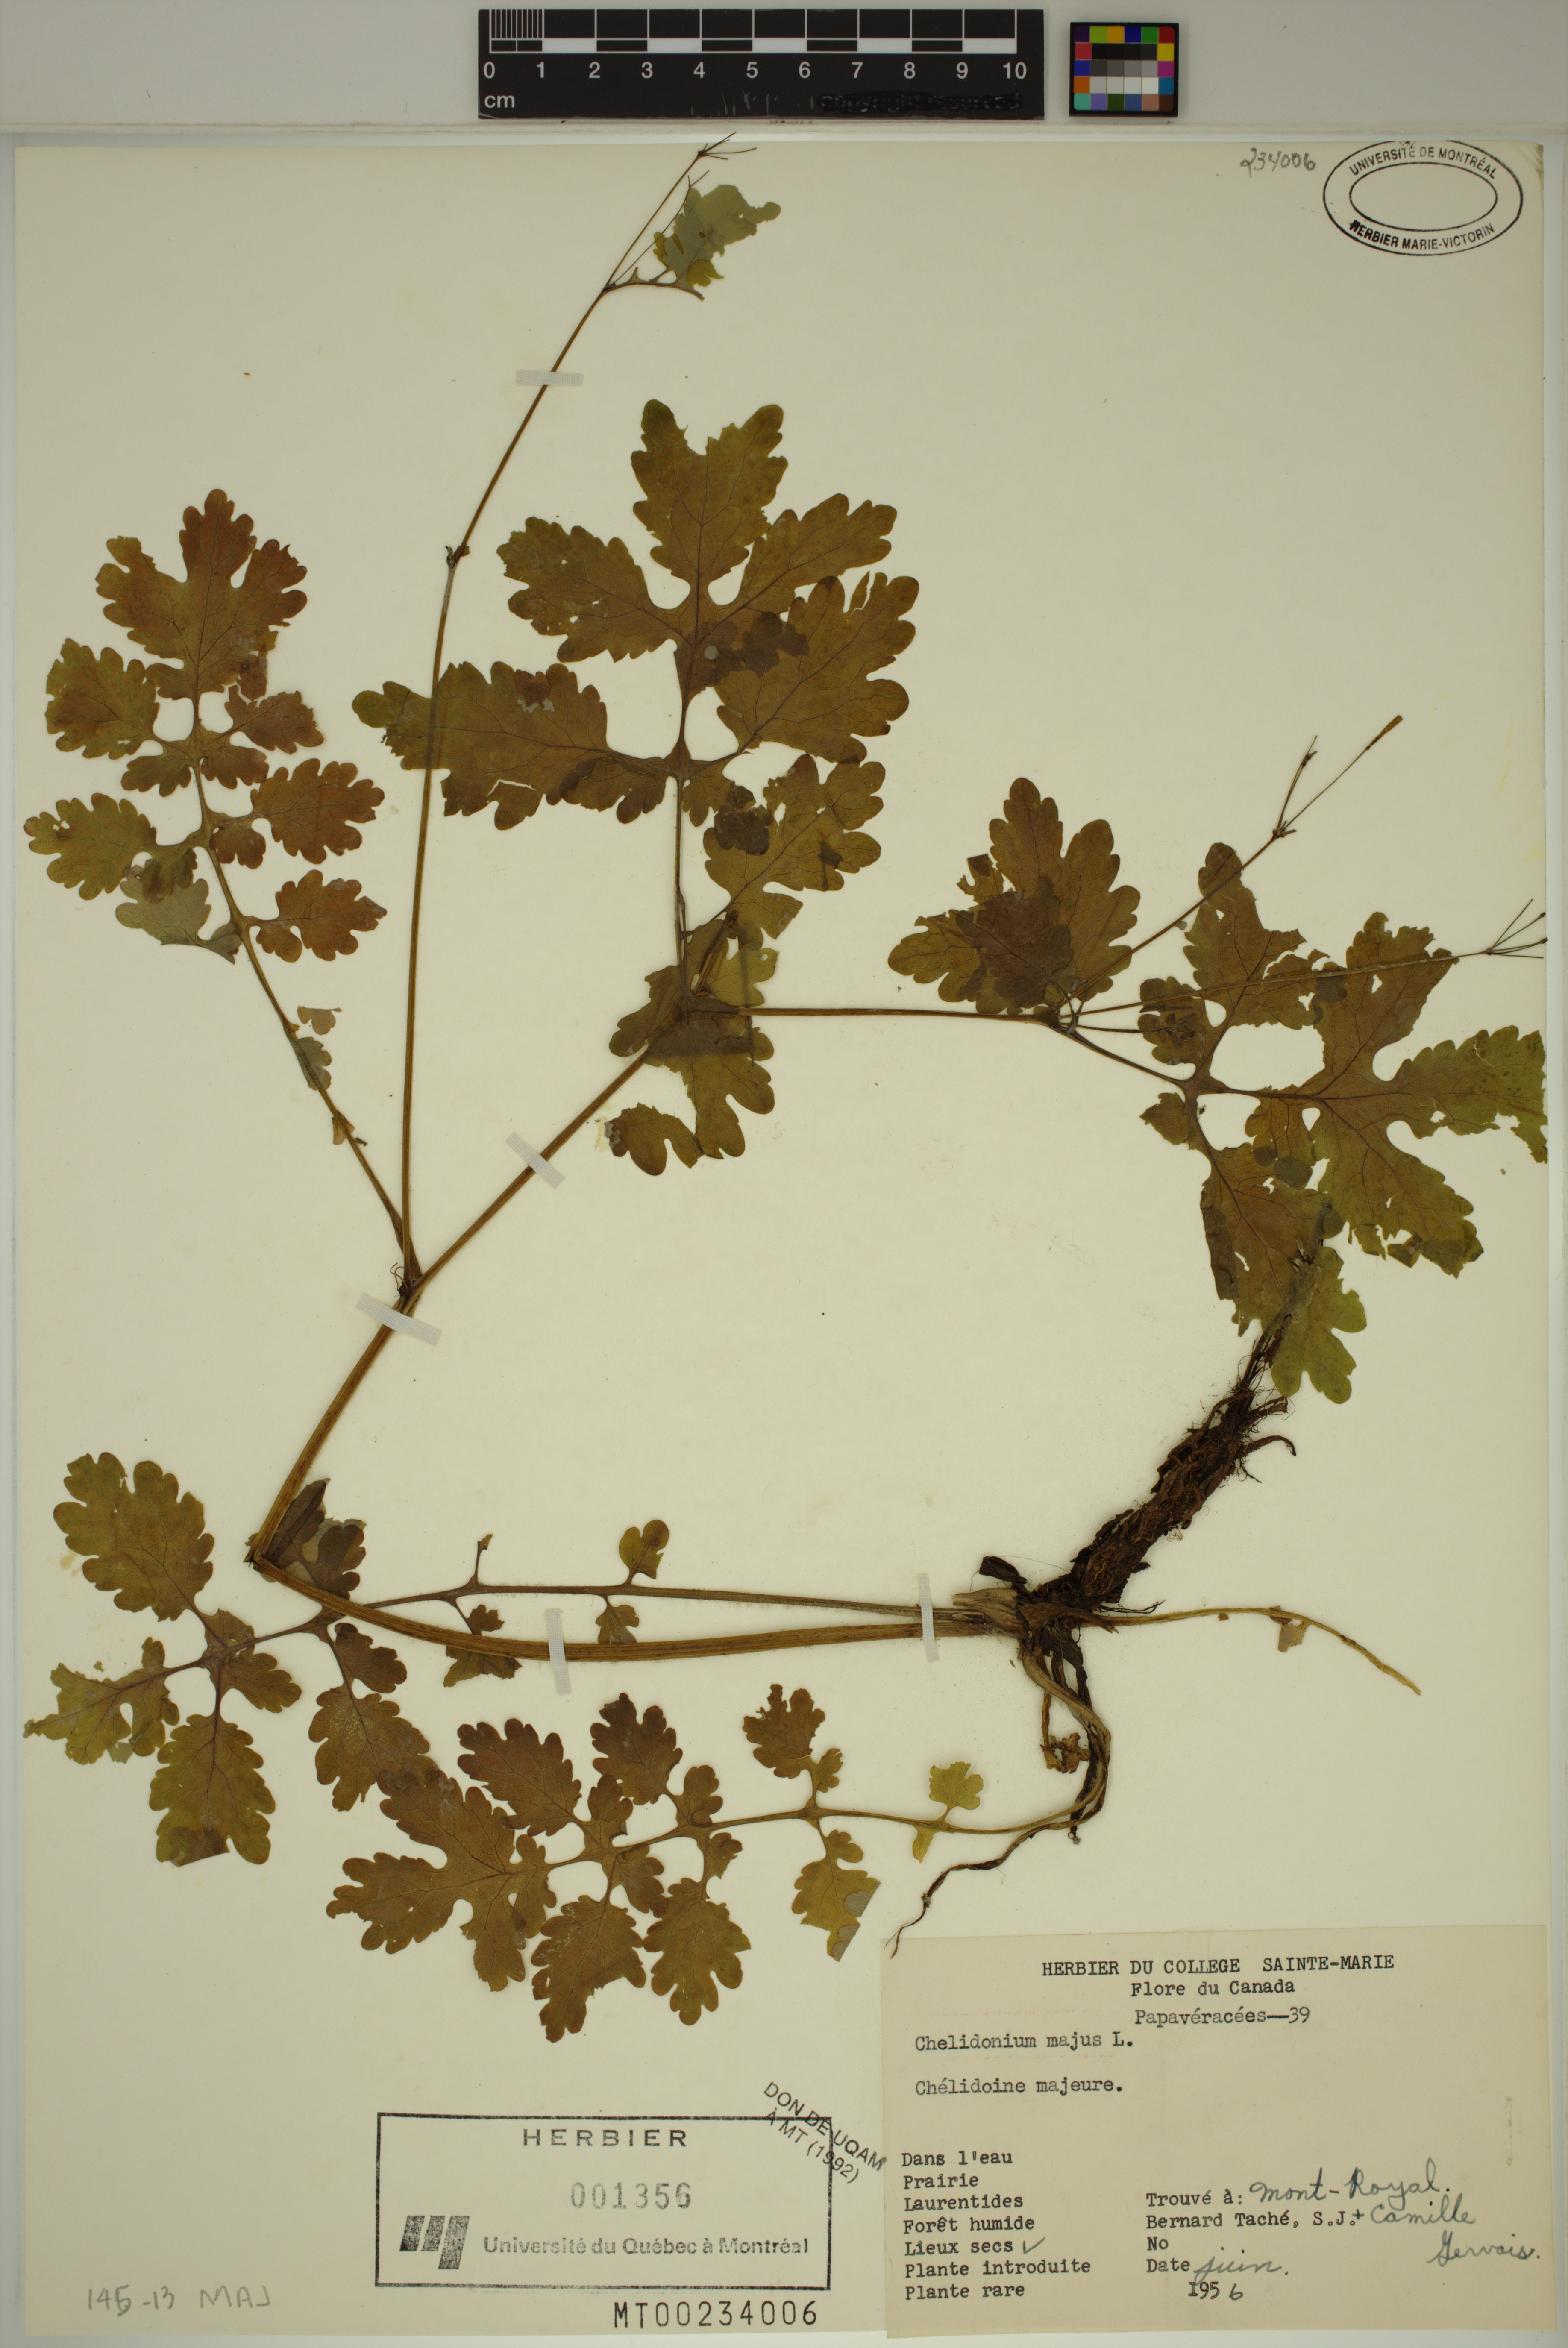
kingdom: Plantae
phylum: Tracheophyta
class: Magnoliopsida
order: Ranunculales
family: Papaveraceae
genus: Chelidonium
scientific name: Chelidonium majus
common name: Greater celandine
